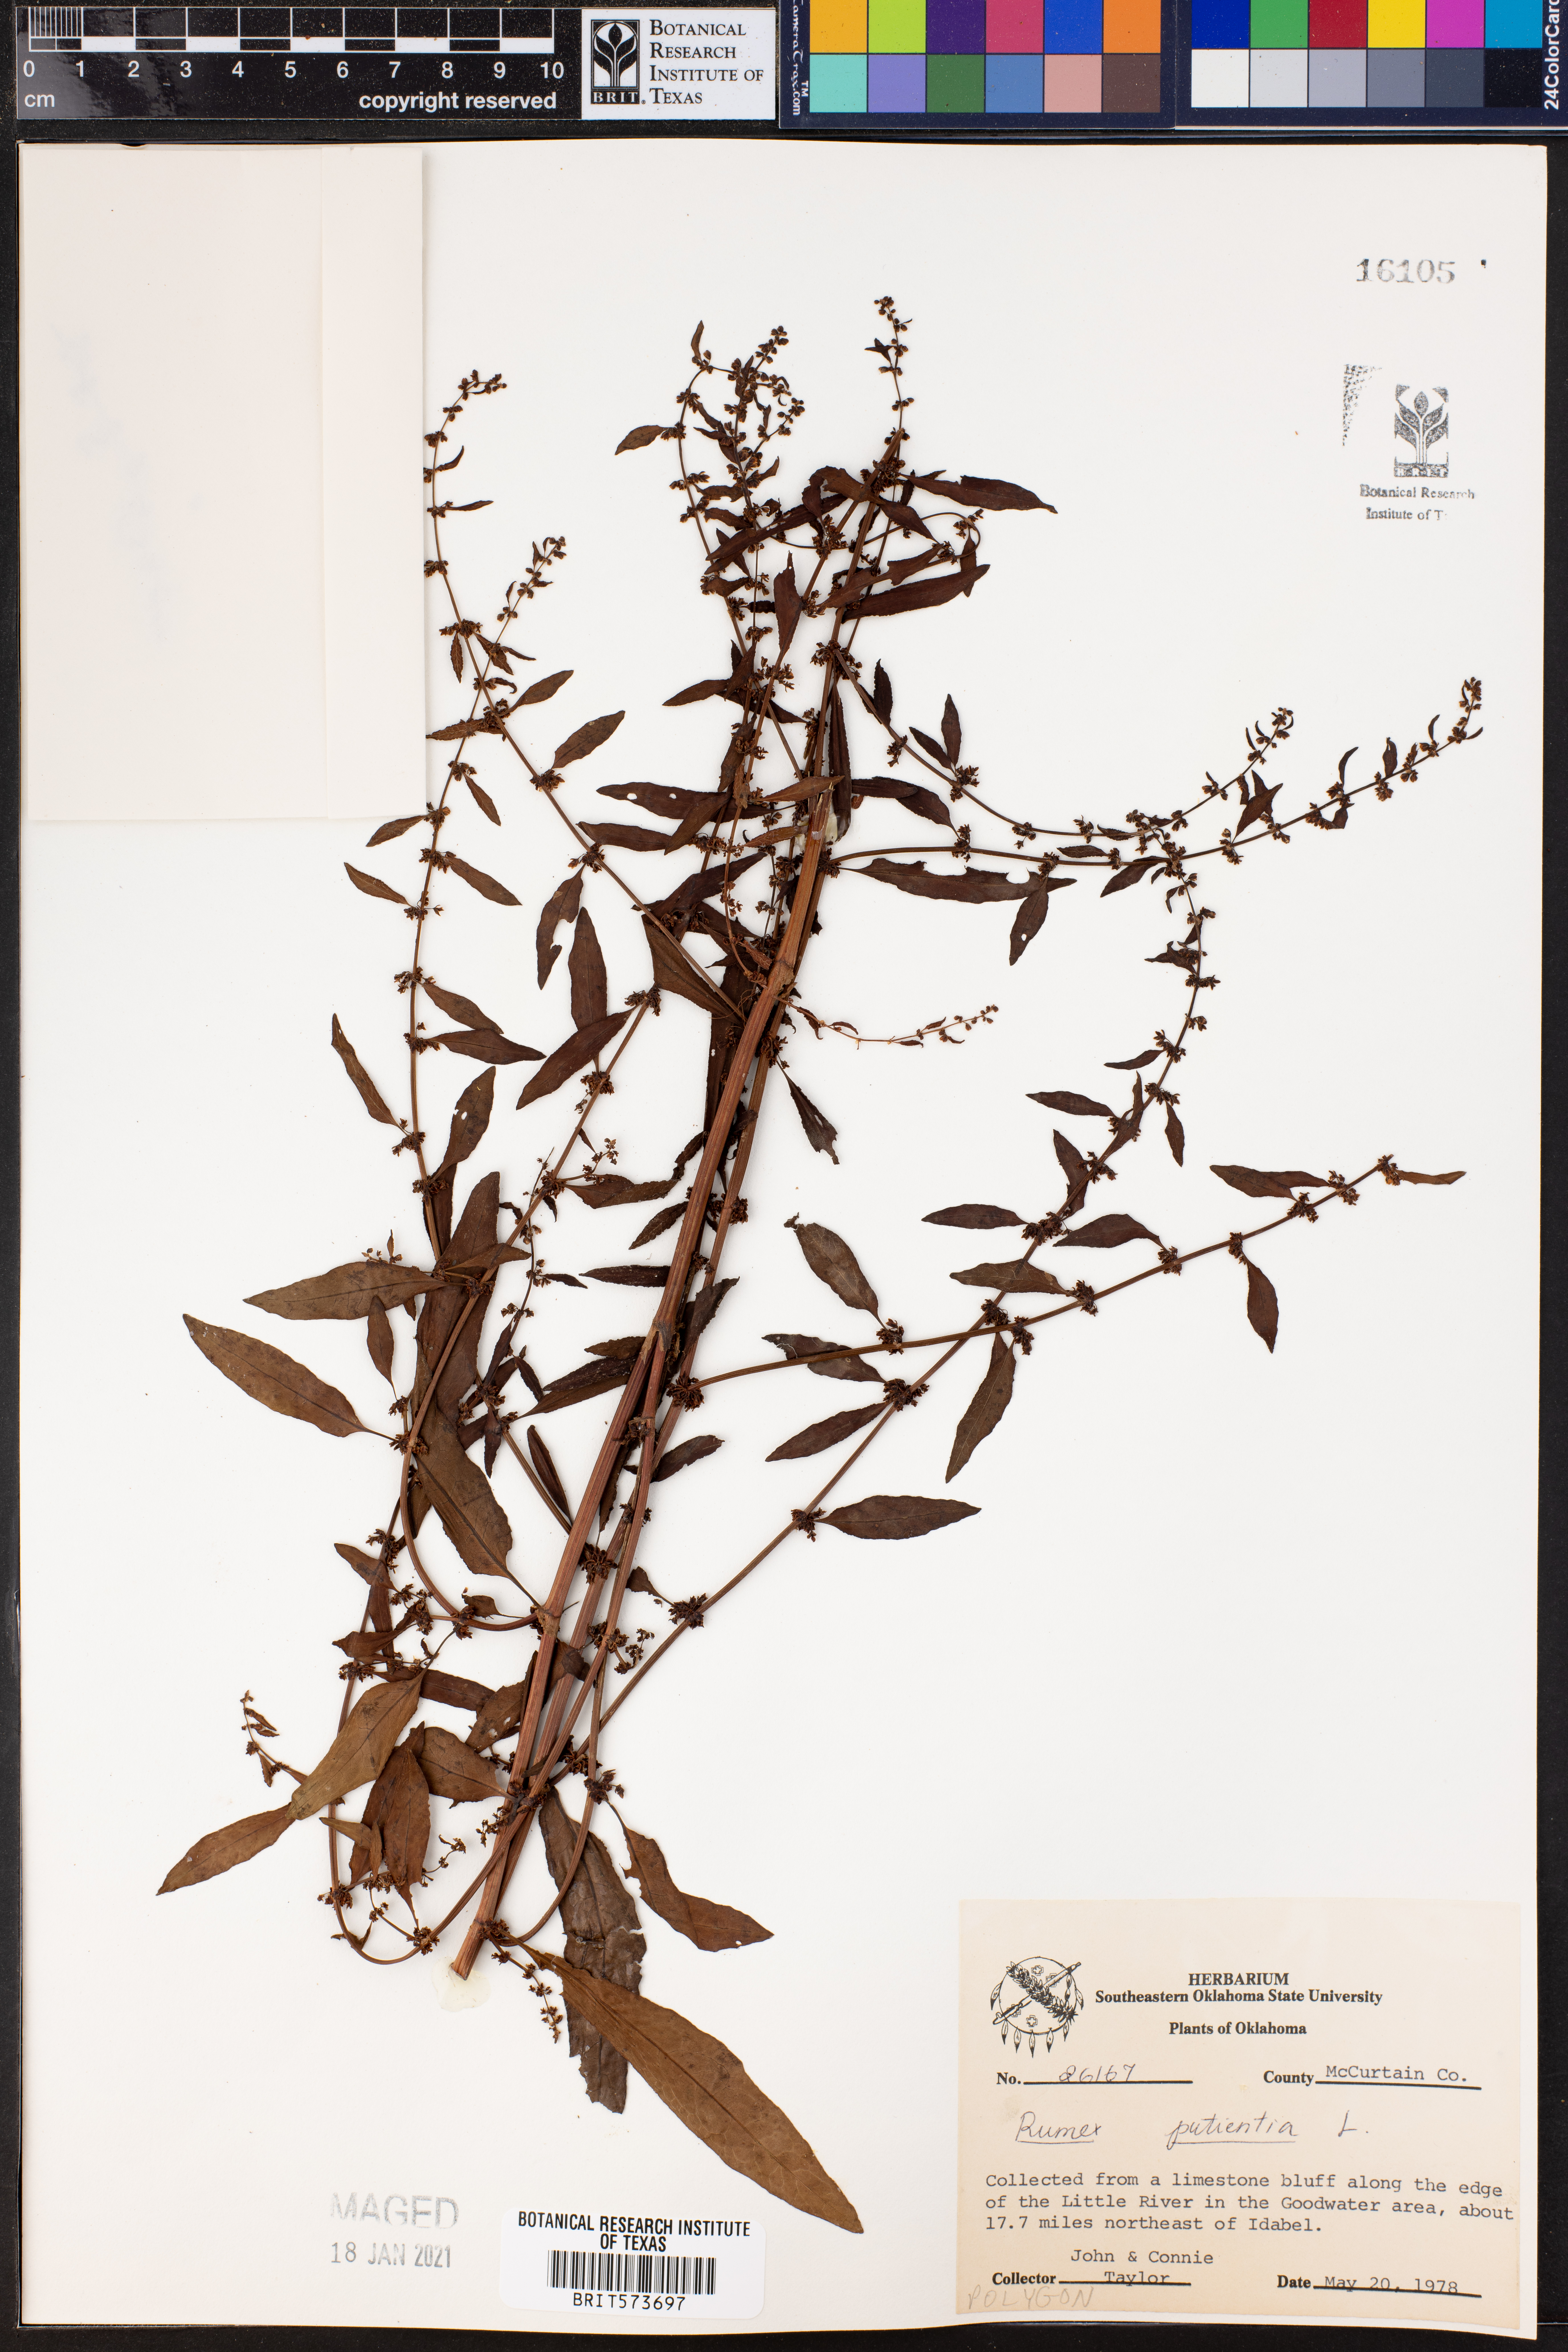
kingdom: Plantae
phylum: Tracheophyta
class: Magnoliopsida
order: Caryophyllales
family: Polygonaceae
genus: Rumex
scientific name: Rumex patientia
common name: Patience dock
